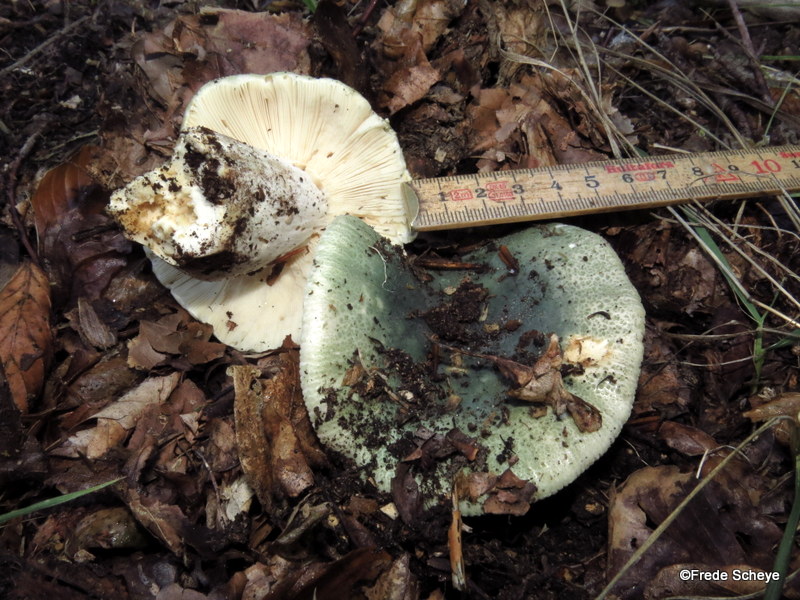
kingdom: Fungi
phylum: Basidiomycota
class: Agaricomycetes
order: Russulales
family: Russulaceae
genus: Russula
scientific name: Russula virescens
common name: spanskgrøn skørhat
